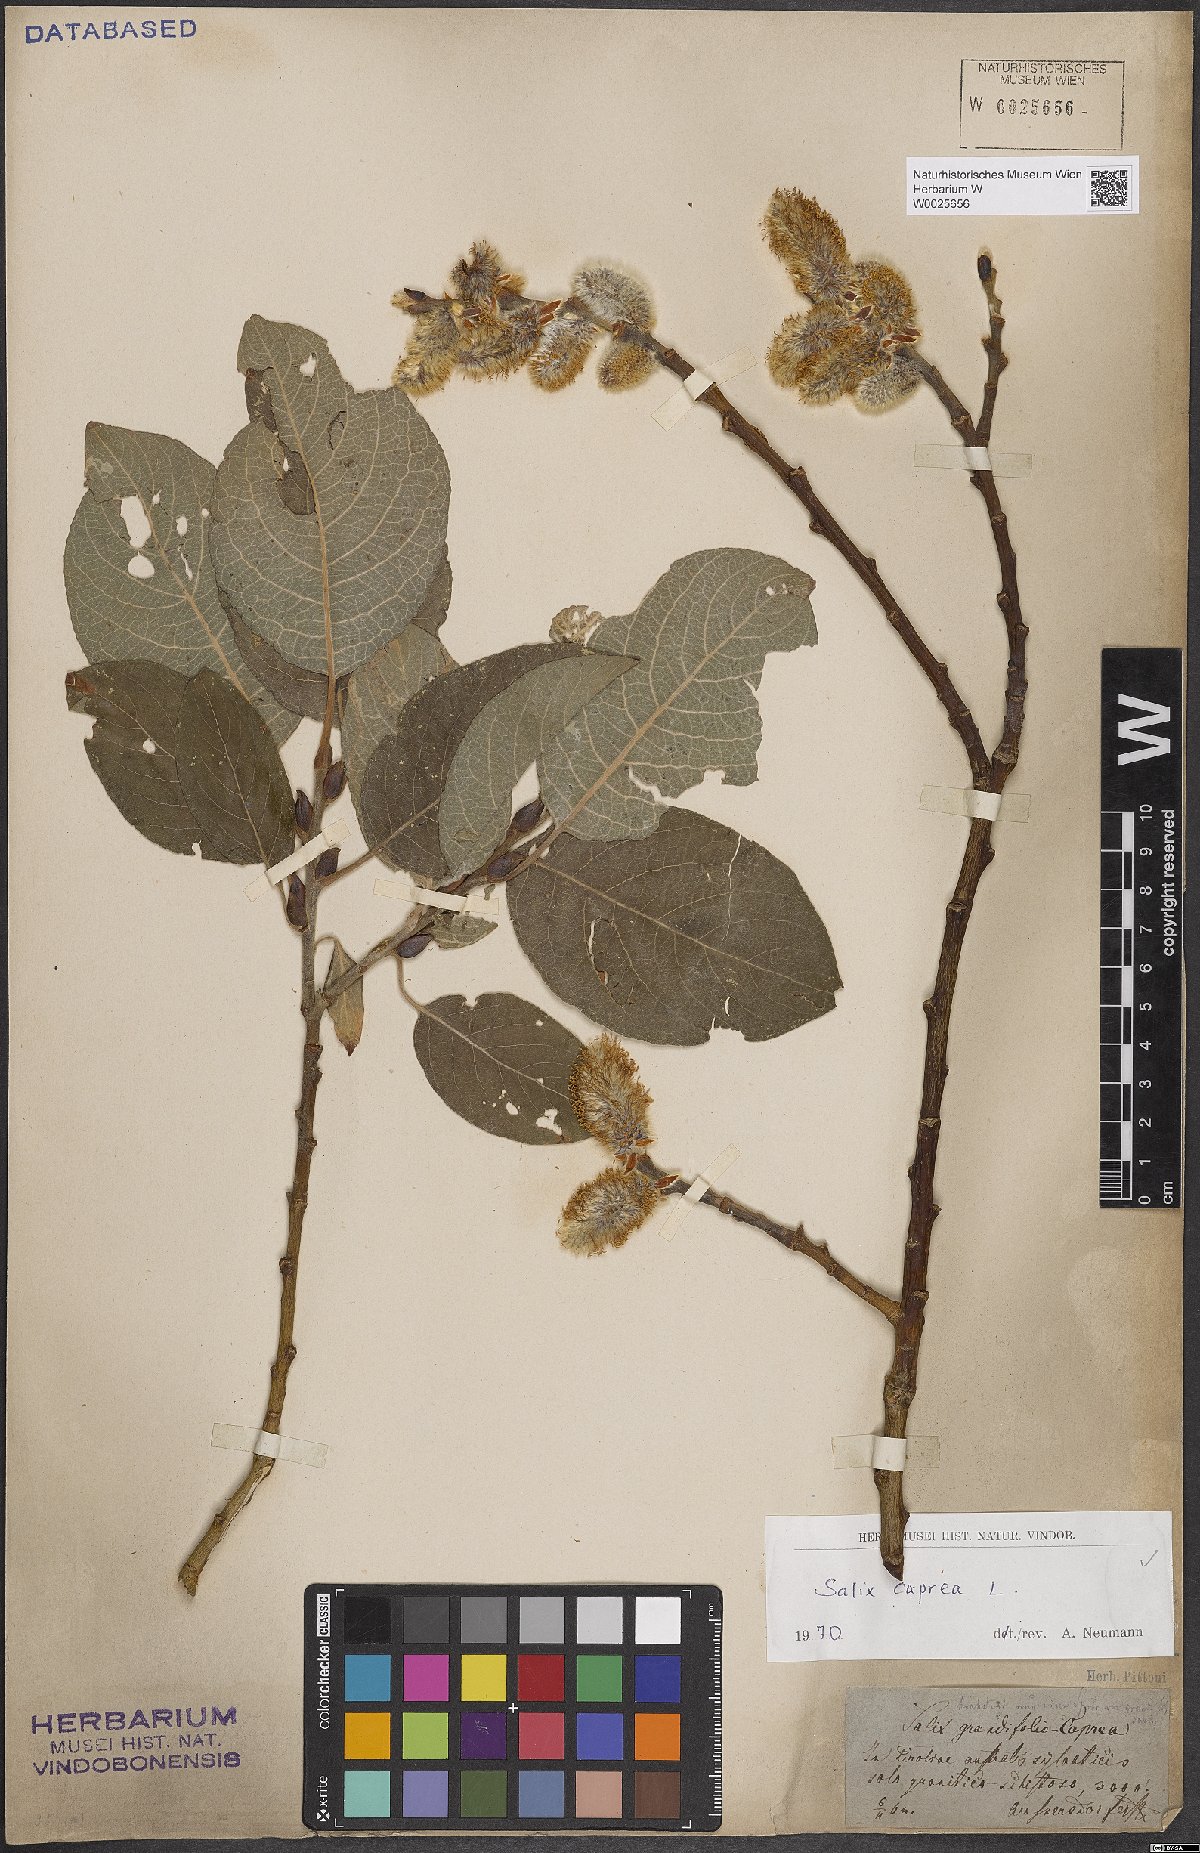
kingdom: Plantae
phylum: Tracheophyta
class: Magnoliopsida
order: Malpighiales
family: Salicaceae
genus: Salix
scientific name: Salix caprea
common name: Goat willow
